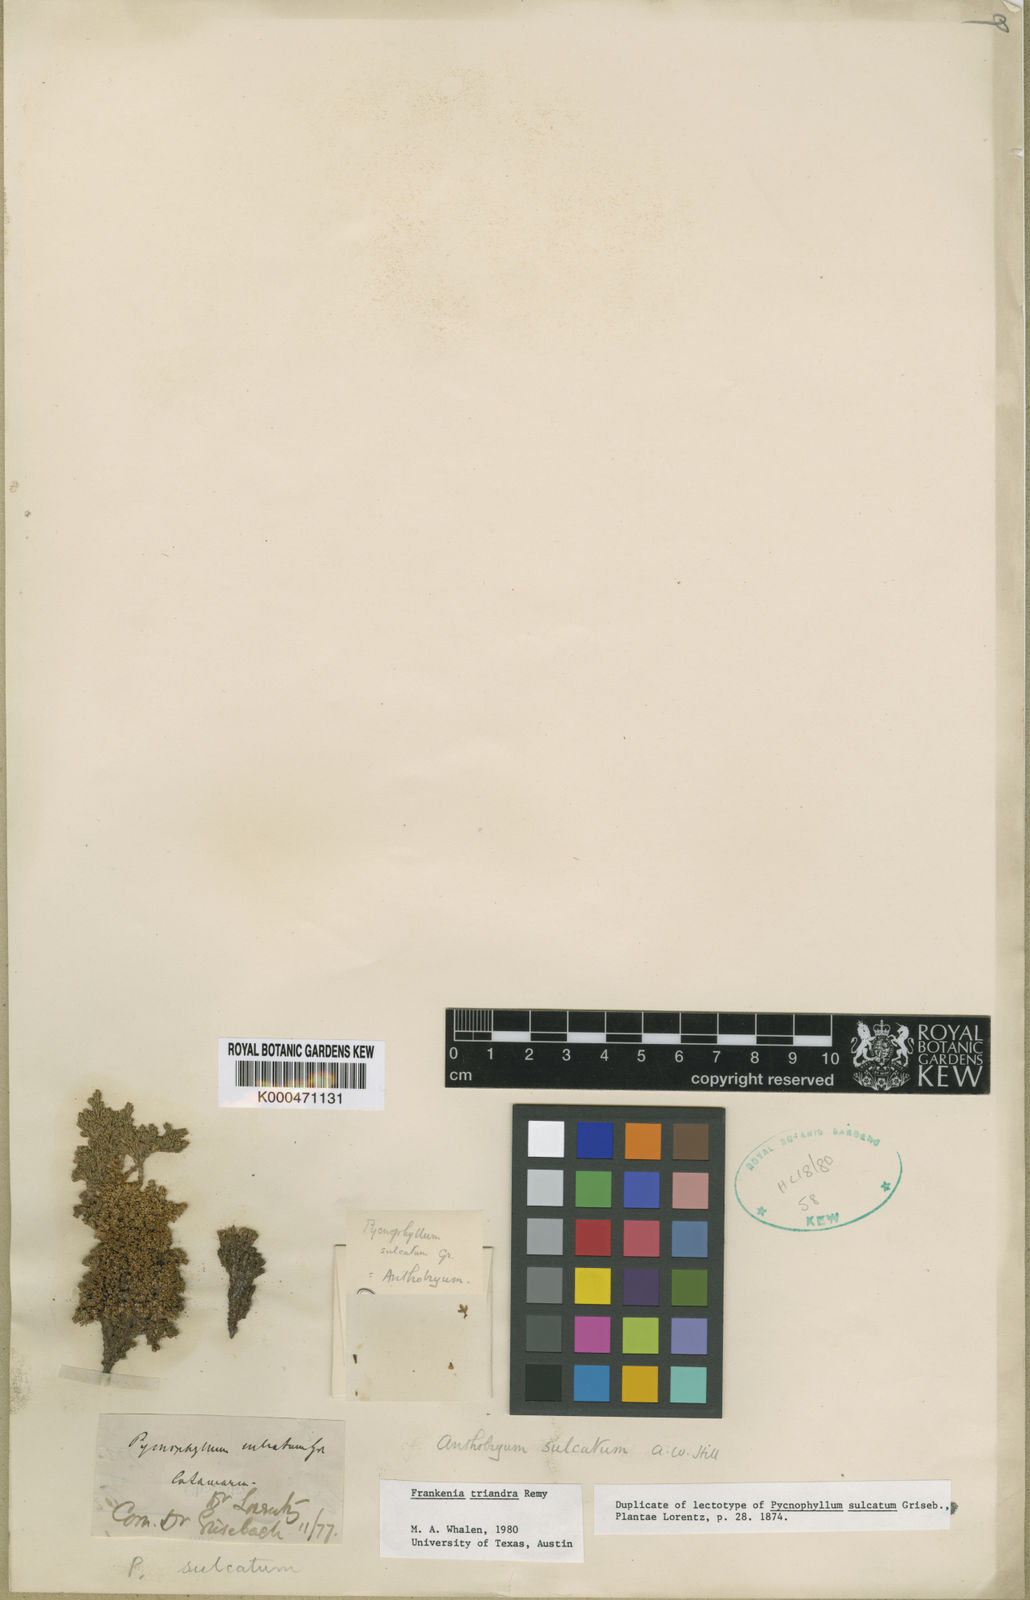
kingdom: Plantae
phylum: Tracheophyta
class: Magnoliopsida
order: Caryophyllales
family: Frankeniaceae
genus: Frankenia
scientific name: Frankenia
